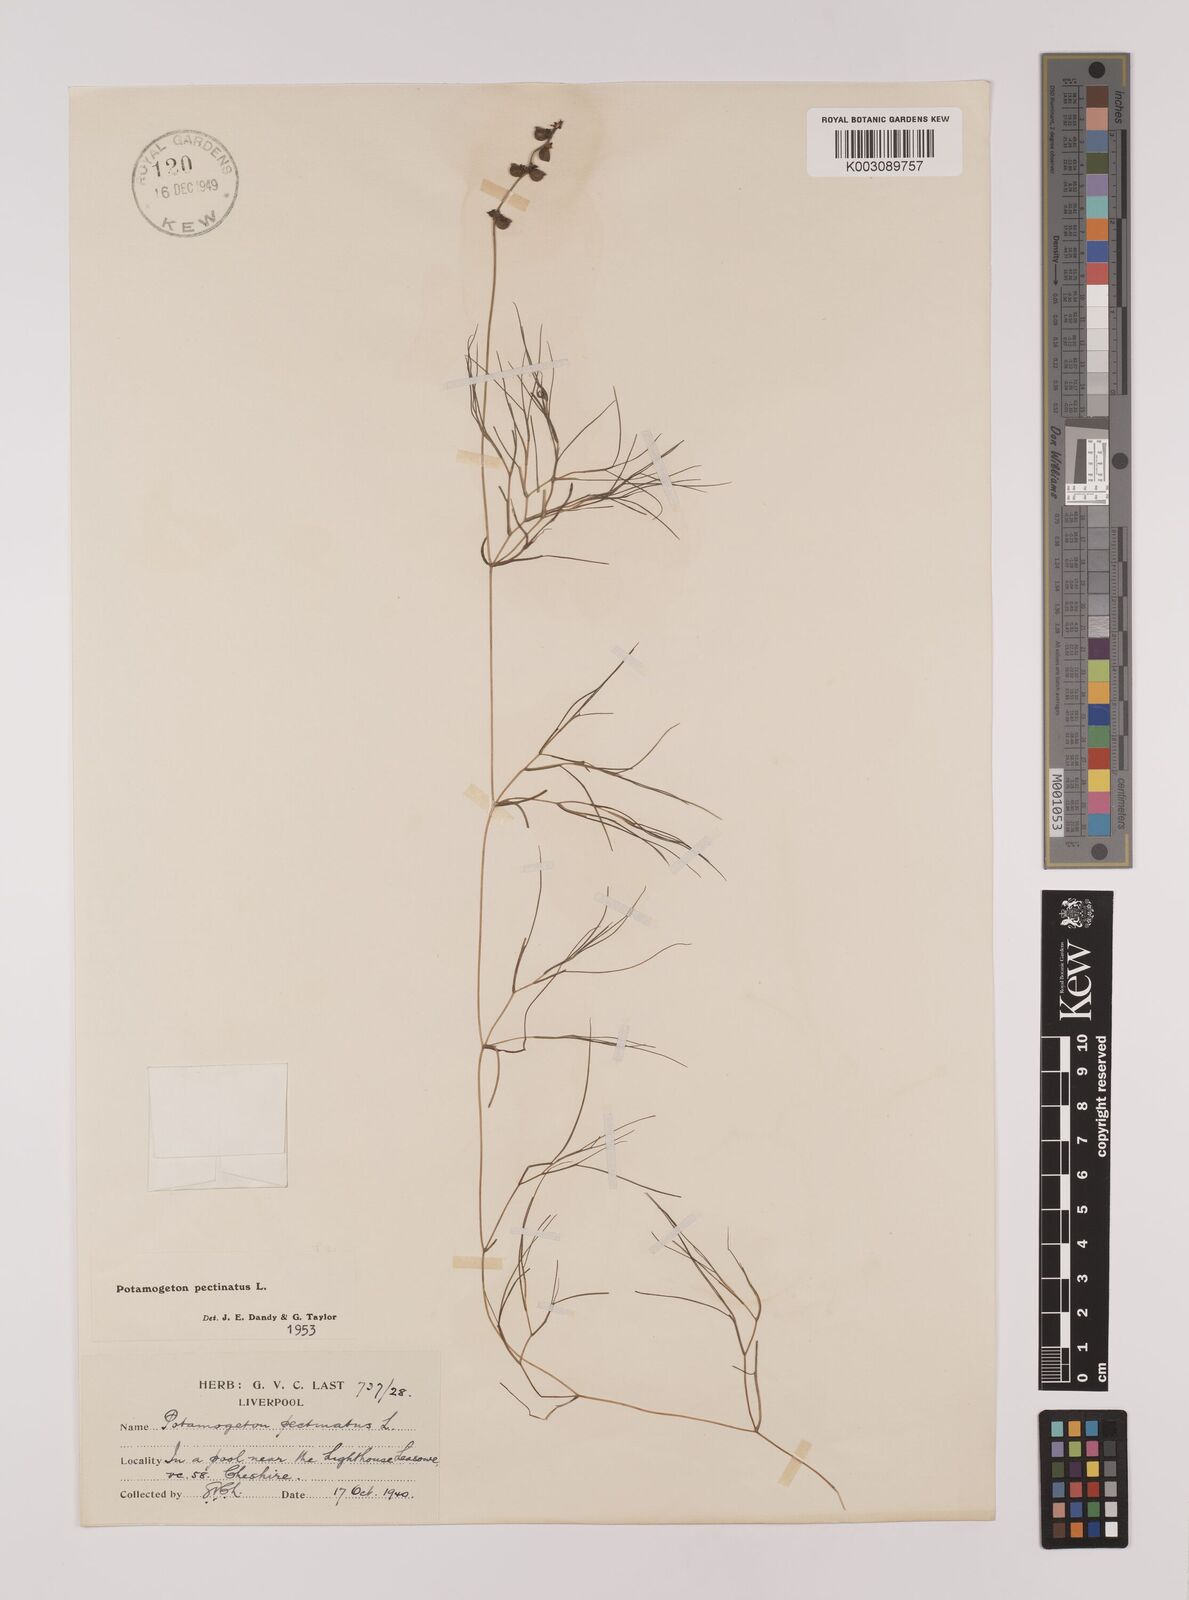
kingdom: Plantae
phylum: Tracheophyta
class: Liliopsida
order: Alismatales
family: Potamogetonaceae
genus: Stuckenia
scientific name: Stuckenia pectinata
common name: Sago pondweed
